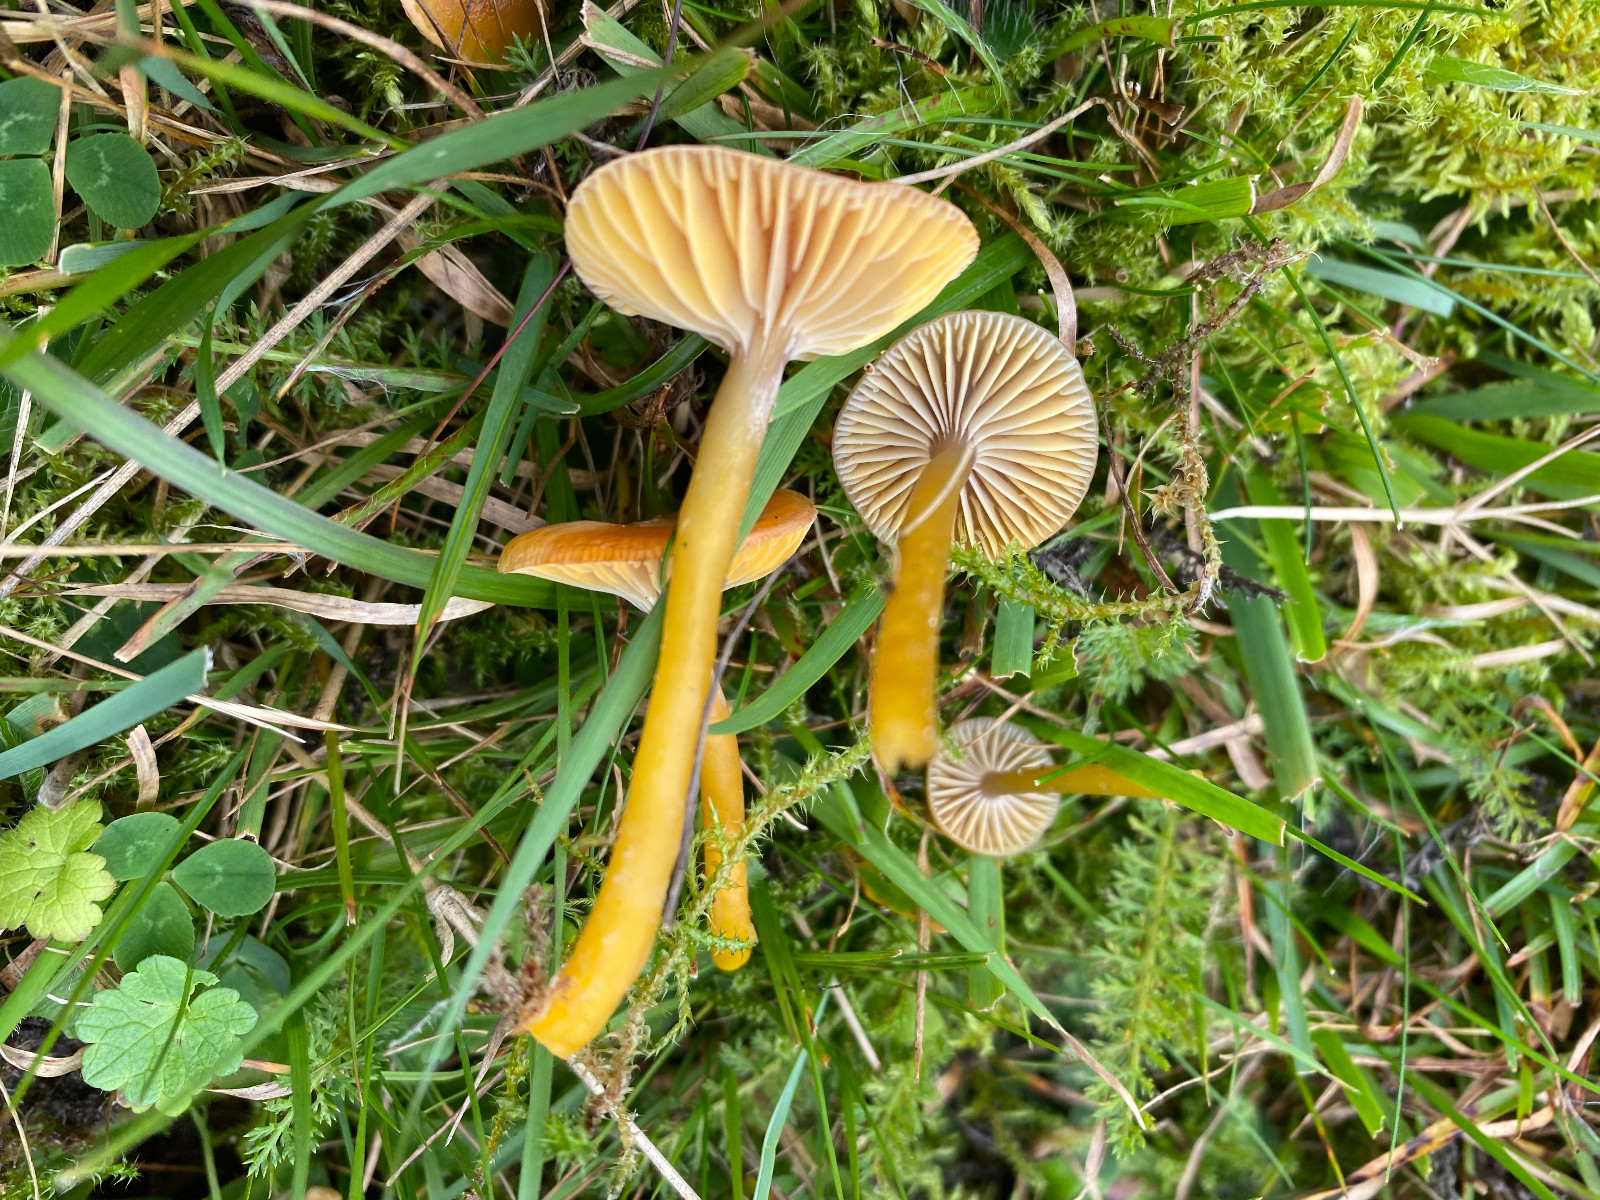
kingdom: Fungi
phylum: Basidiomycota
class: Agaricomycetes
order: Agaricales
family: Hygrophoraceae
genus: Gliophorus
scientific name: Gliophorus laetus
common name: brusk-vokshat
